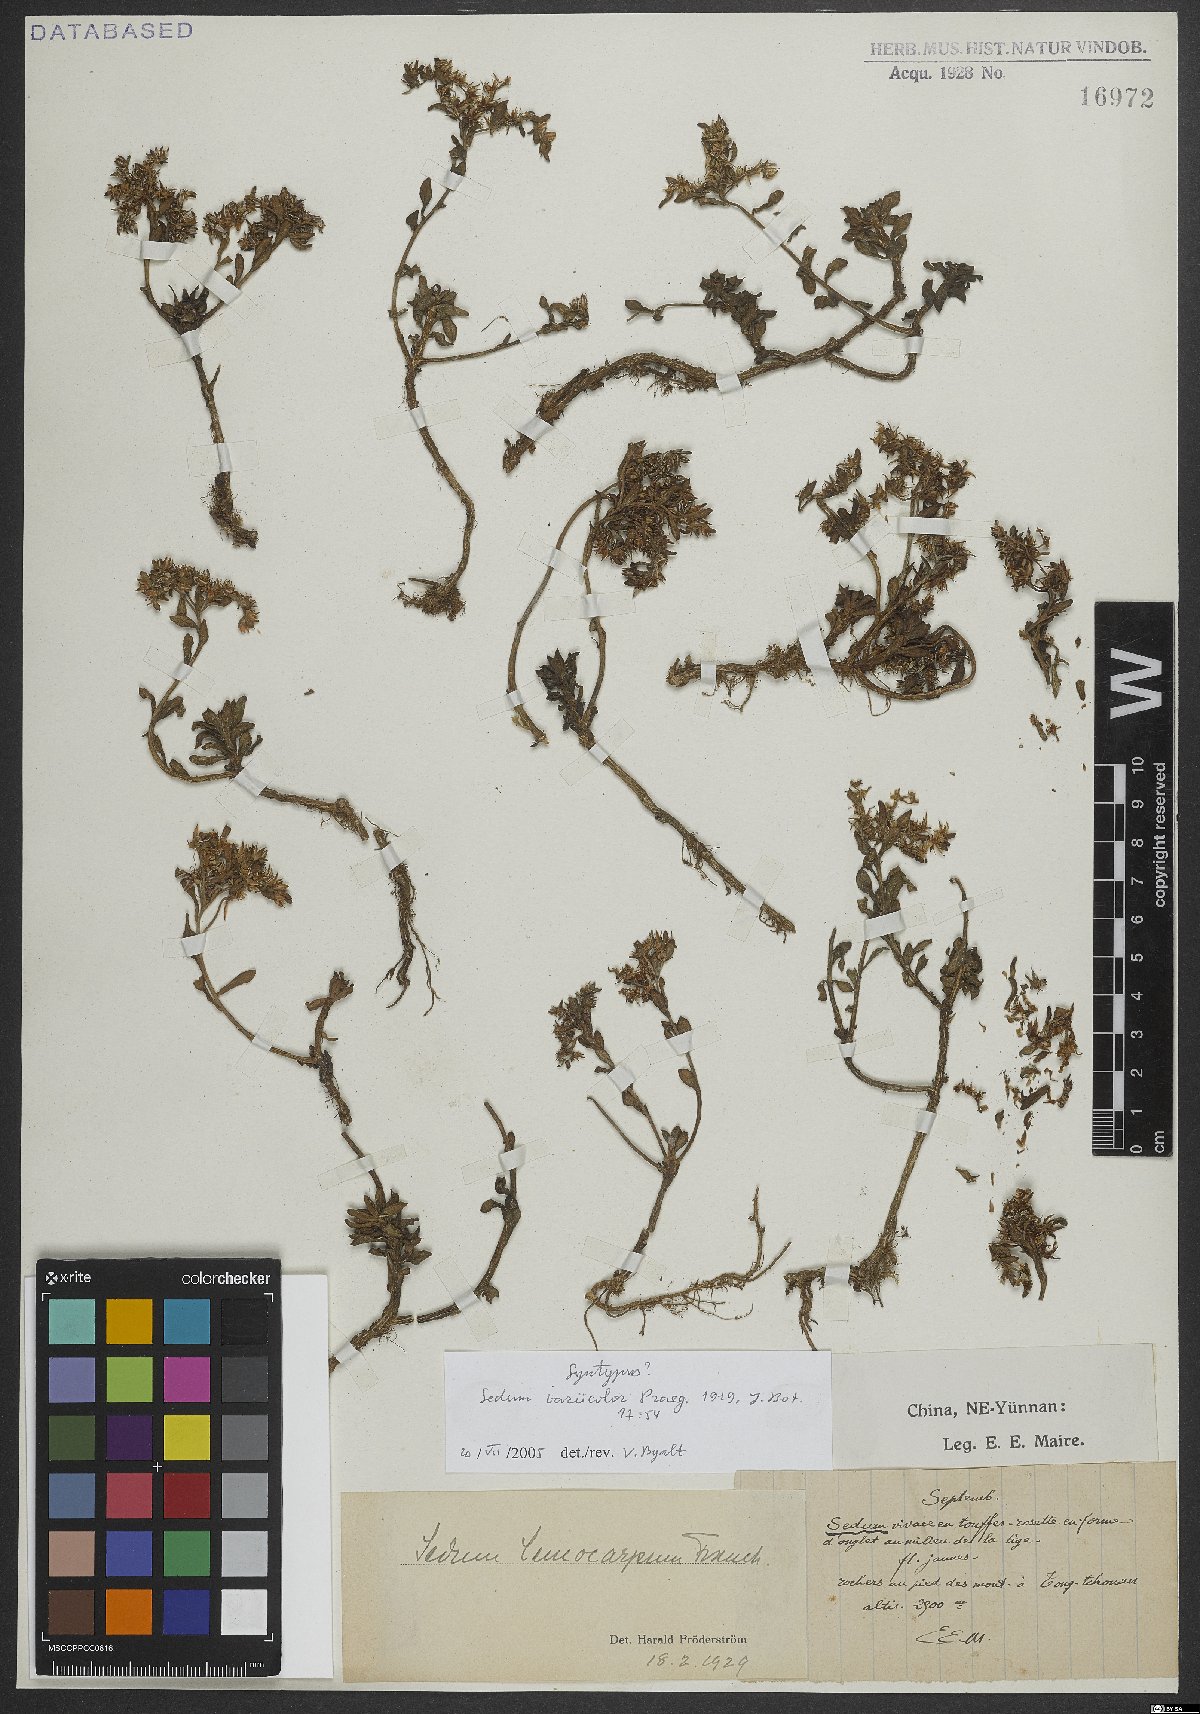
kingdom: Plantae
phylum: Tracheophyta
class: Magnoliopsida
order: Saxifragales
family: Crassulaceae
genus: Sedum
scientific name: Sedum leucocarpum
